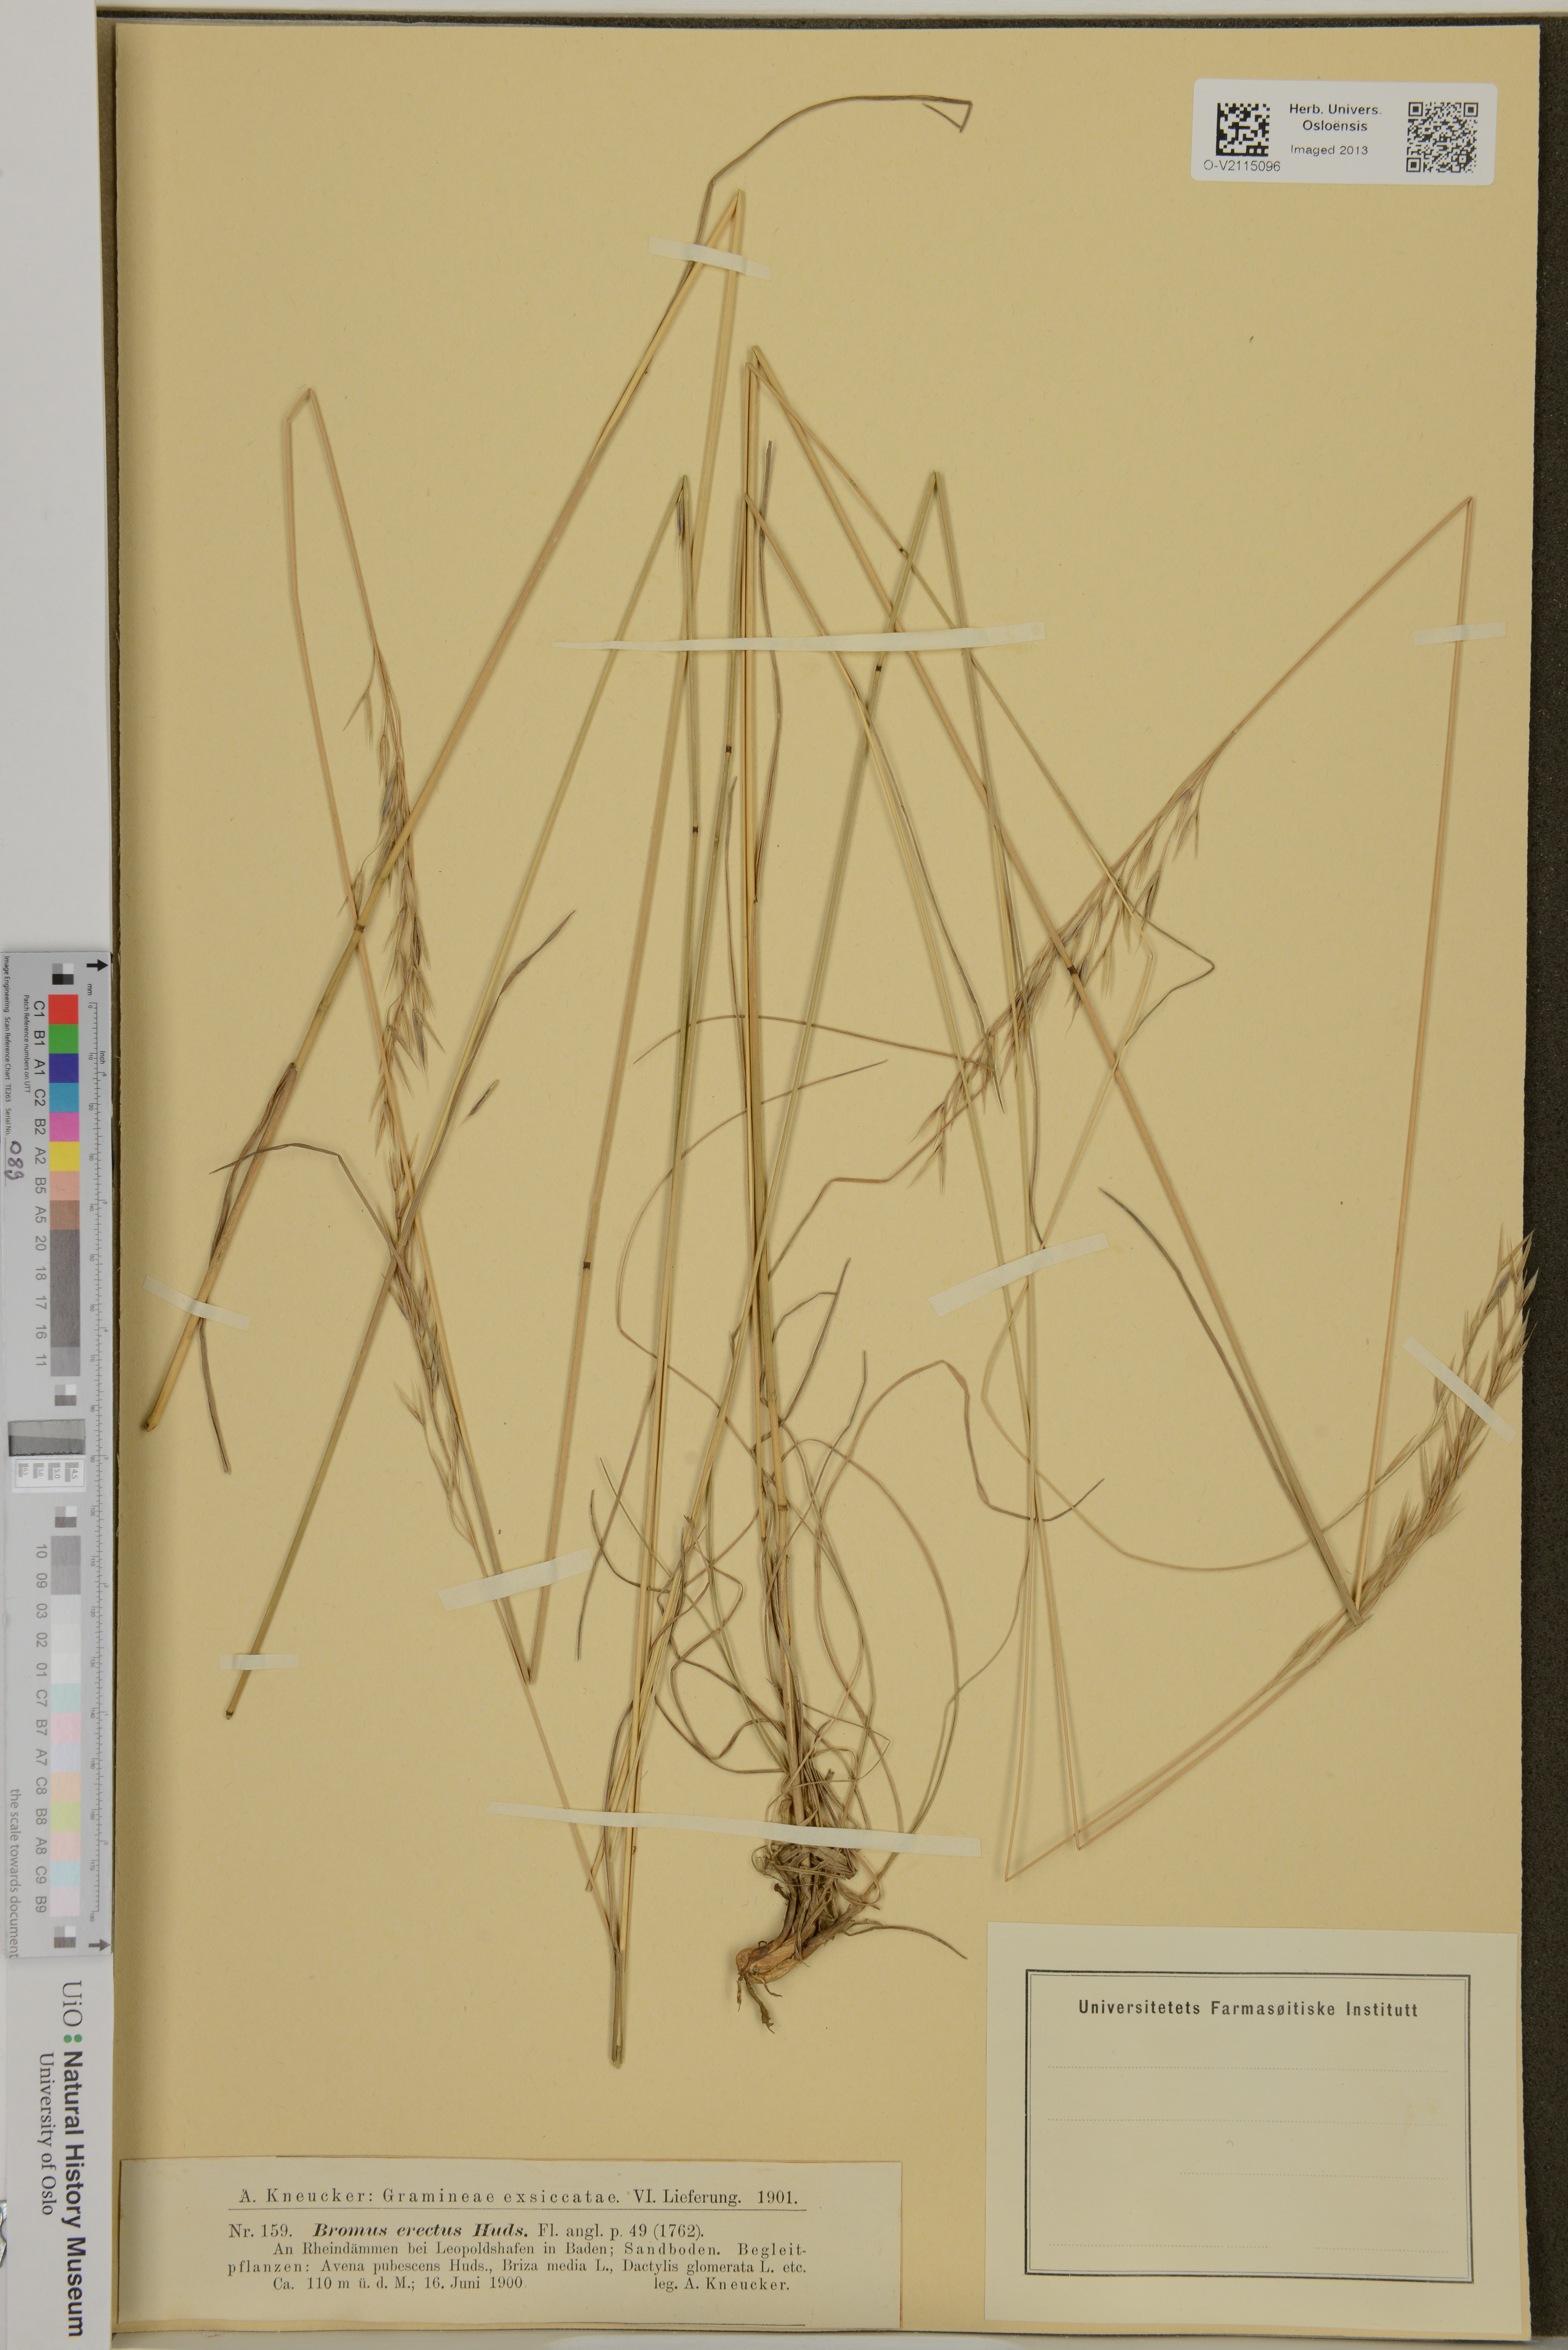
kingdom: Plantae
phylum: Tracheophyta
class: Liliopsida
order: Poales
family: Poaceae
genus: Bromus
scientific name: Bromus erectus
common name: Erect brome
